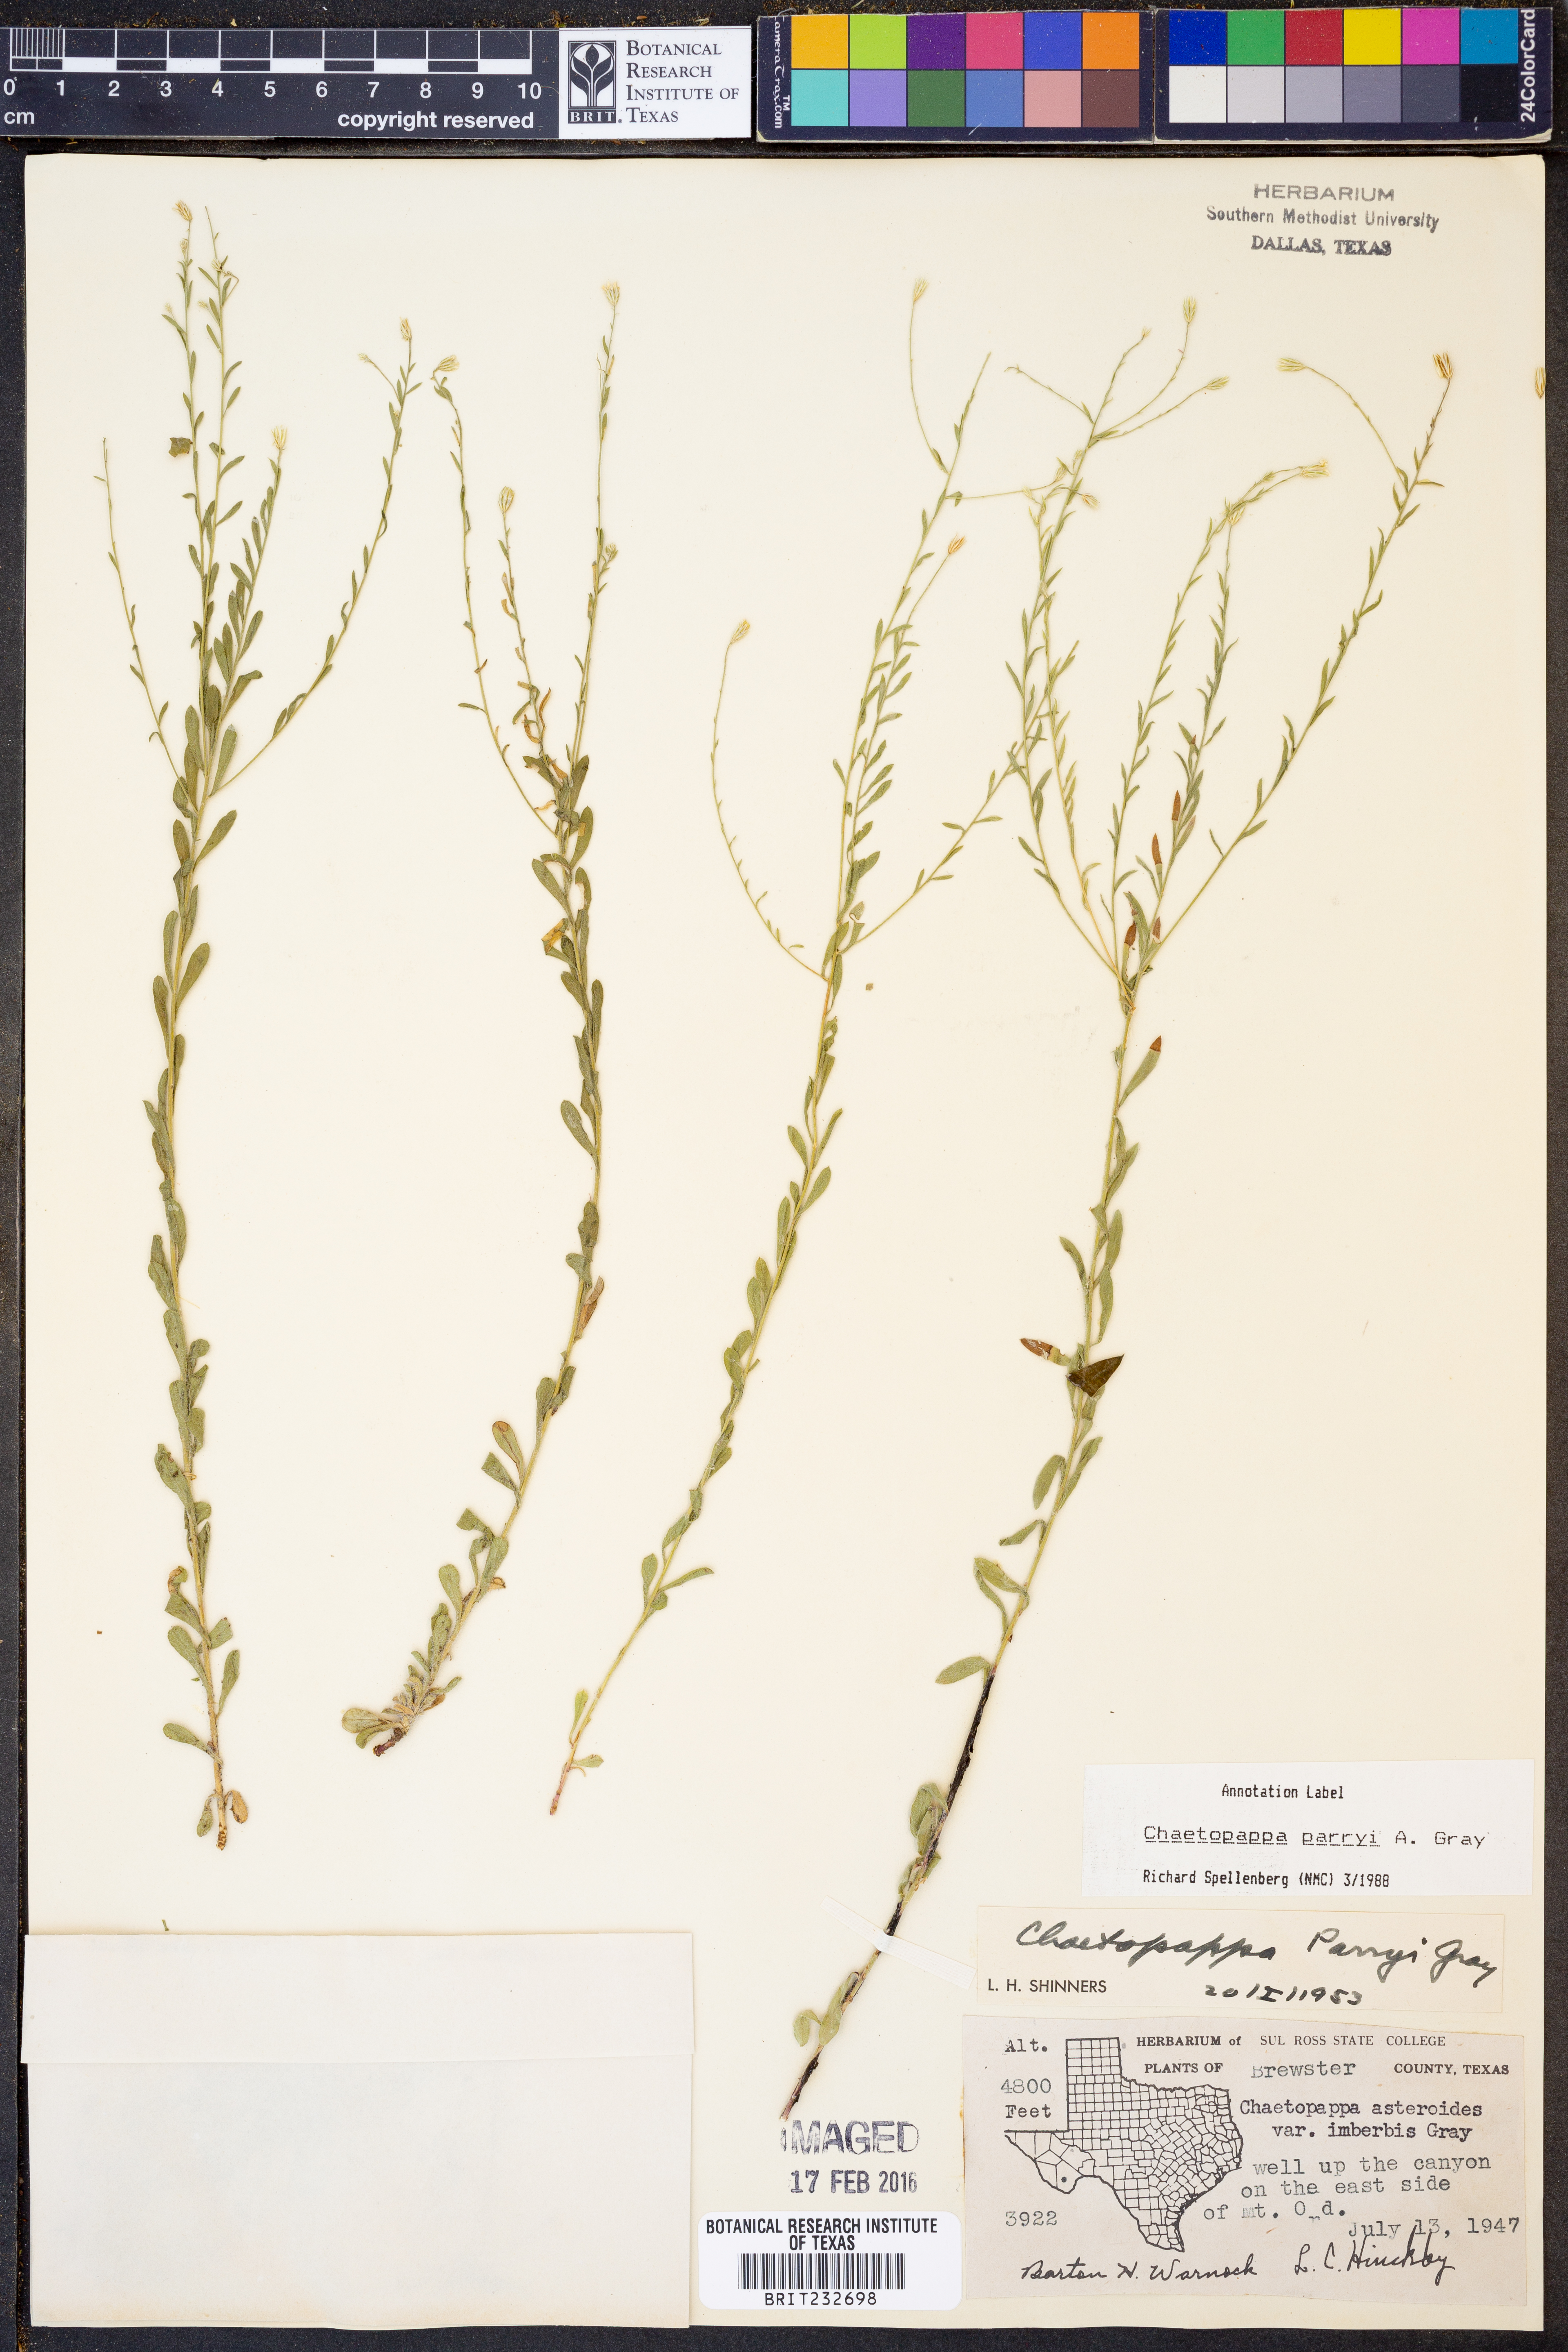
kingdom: Plantae
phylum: Tracheophyta
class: Magnoliopsida
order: Asterales
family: Asteraceae
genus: Chaetopappa
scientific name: Chaetopappa parryi
